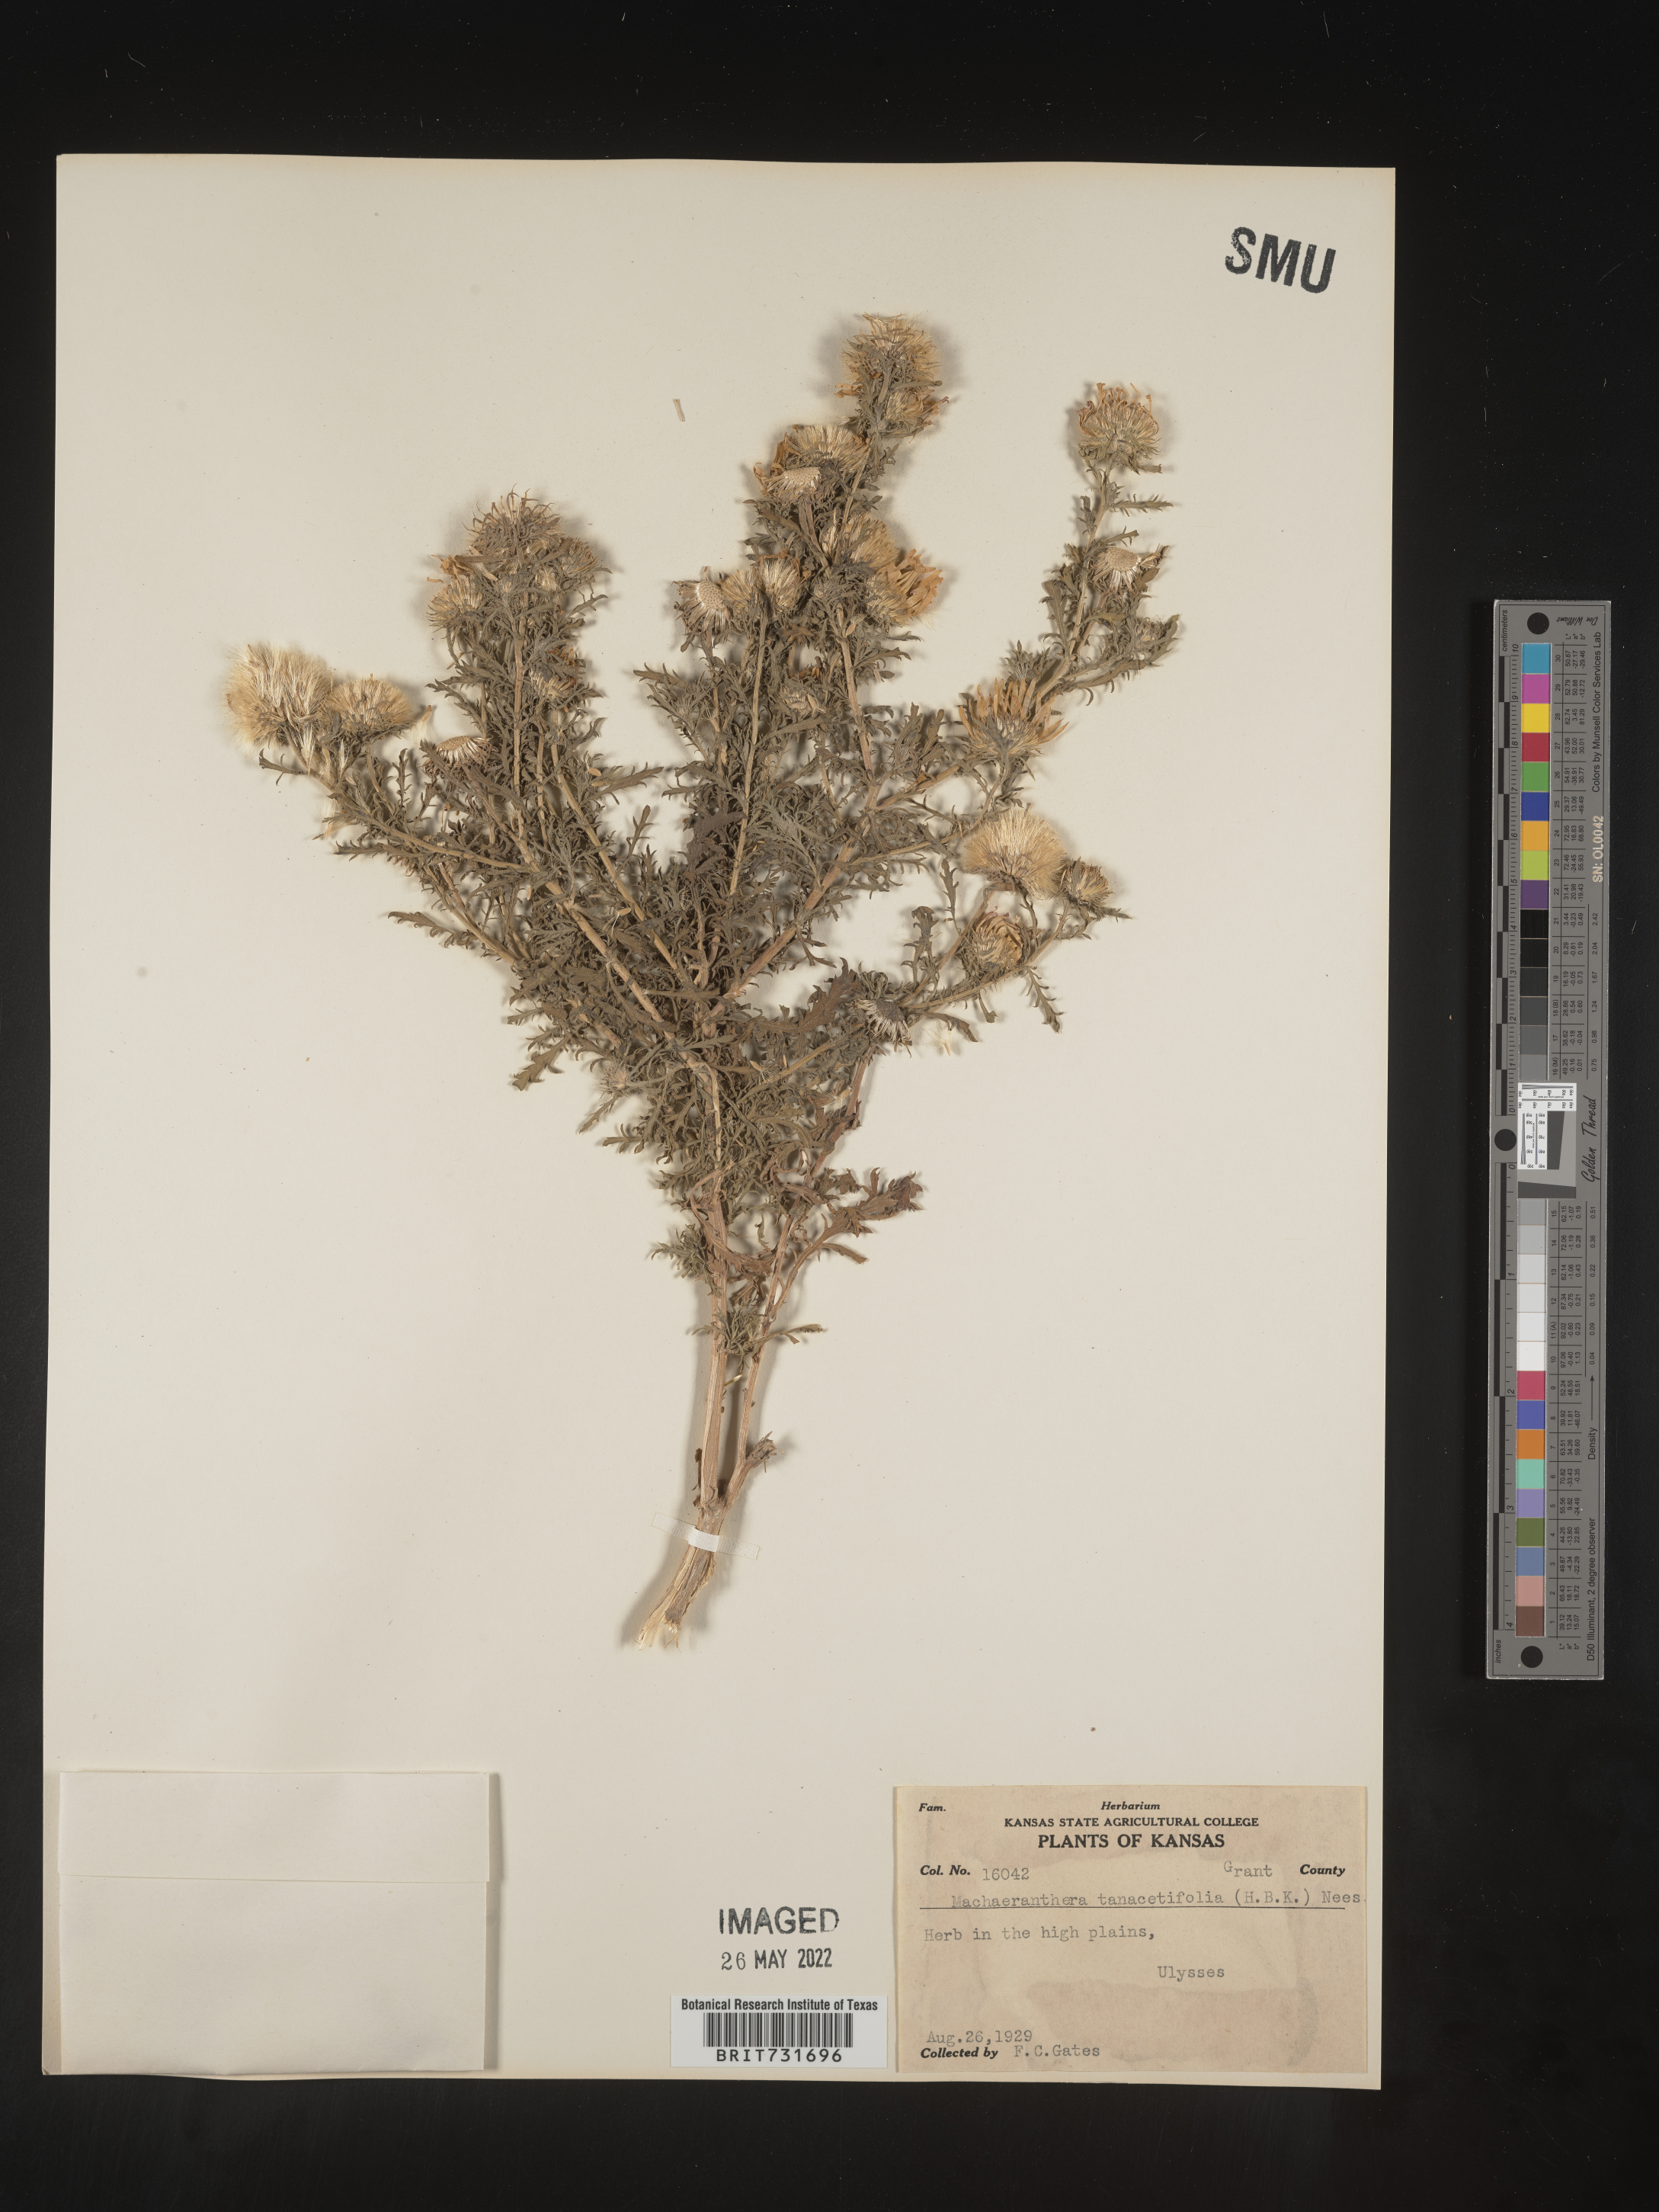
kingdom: Plantae
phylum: Tracheophyta
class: Magnoliopsida
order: Asterales
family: Asteraceae
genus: Machaeranthera
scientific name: Machaeranthera tanacetifolia
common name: Tansy-aster
